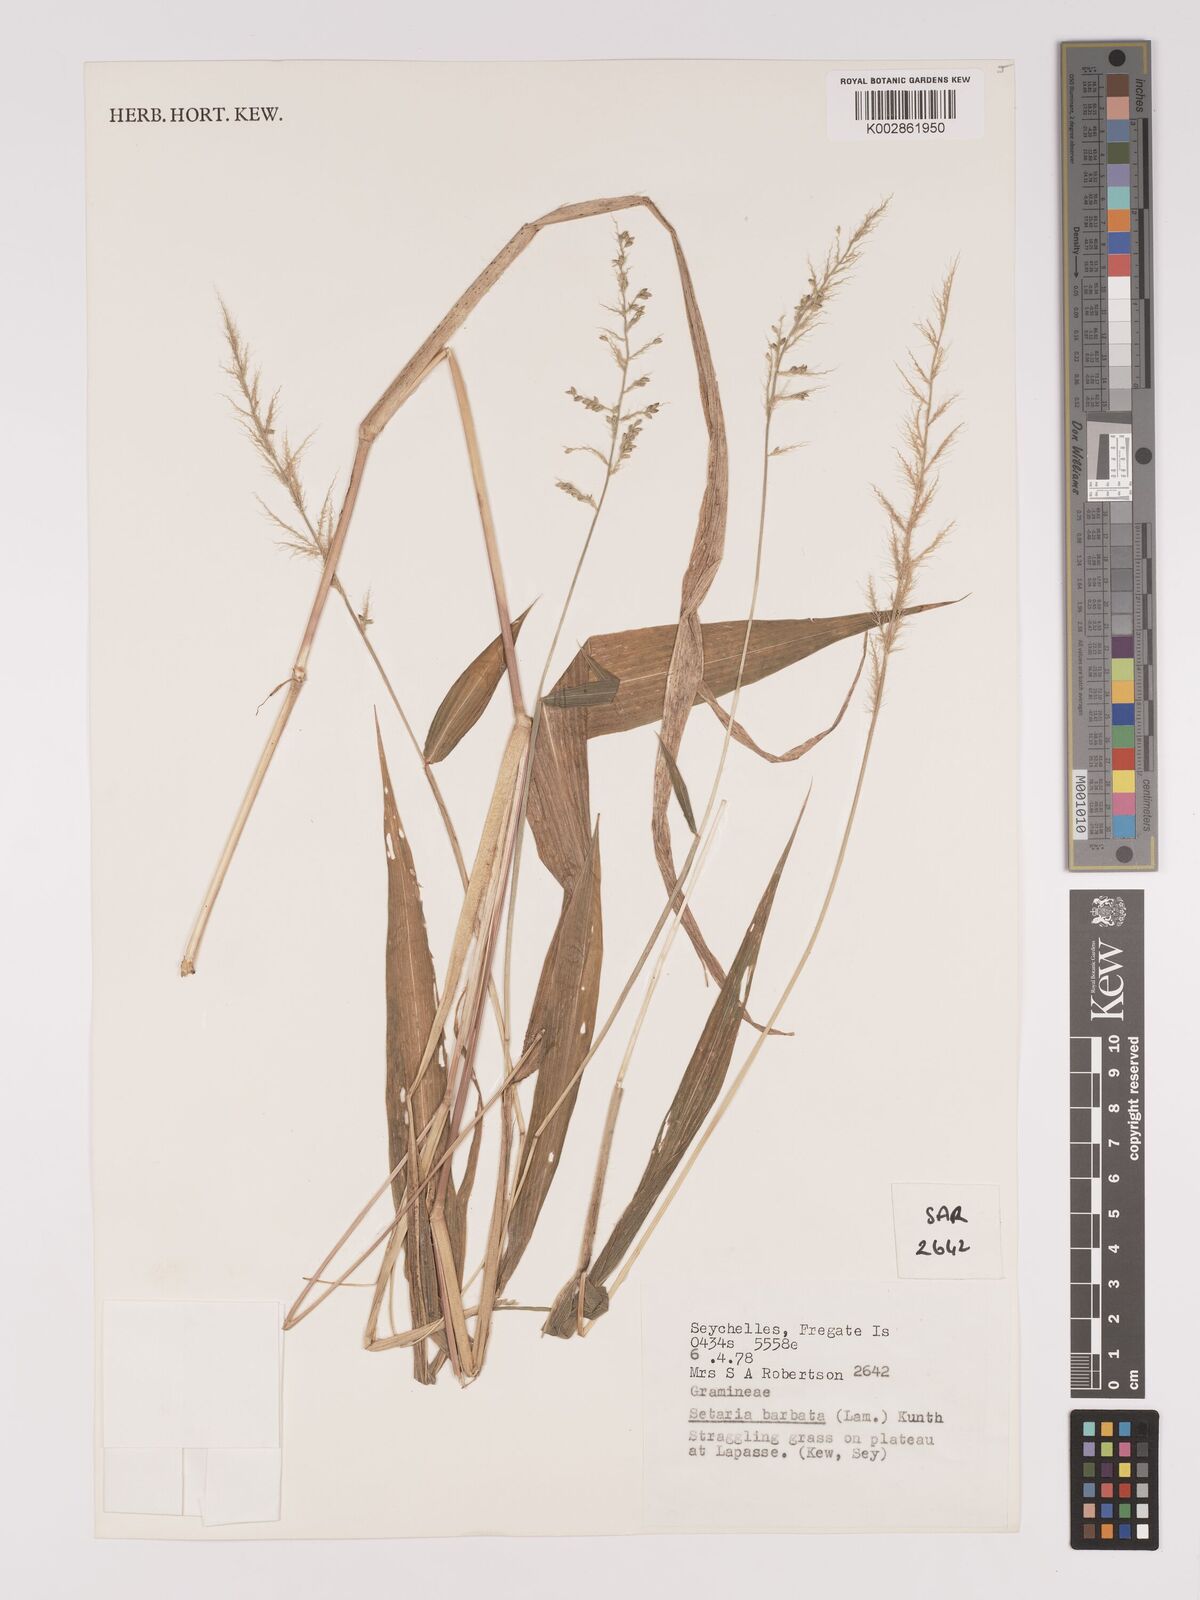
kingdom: Plantae
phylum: Tracheophyta
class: Liliopsida
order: Poales
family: Poaceae
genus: Setaria
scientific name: Setaria barbata
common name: East indian bristlegrass
